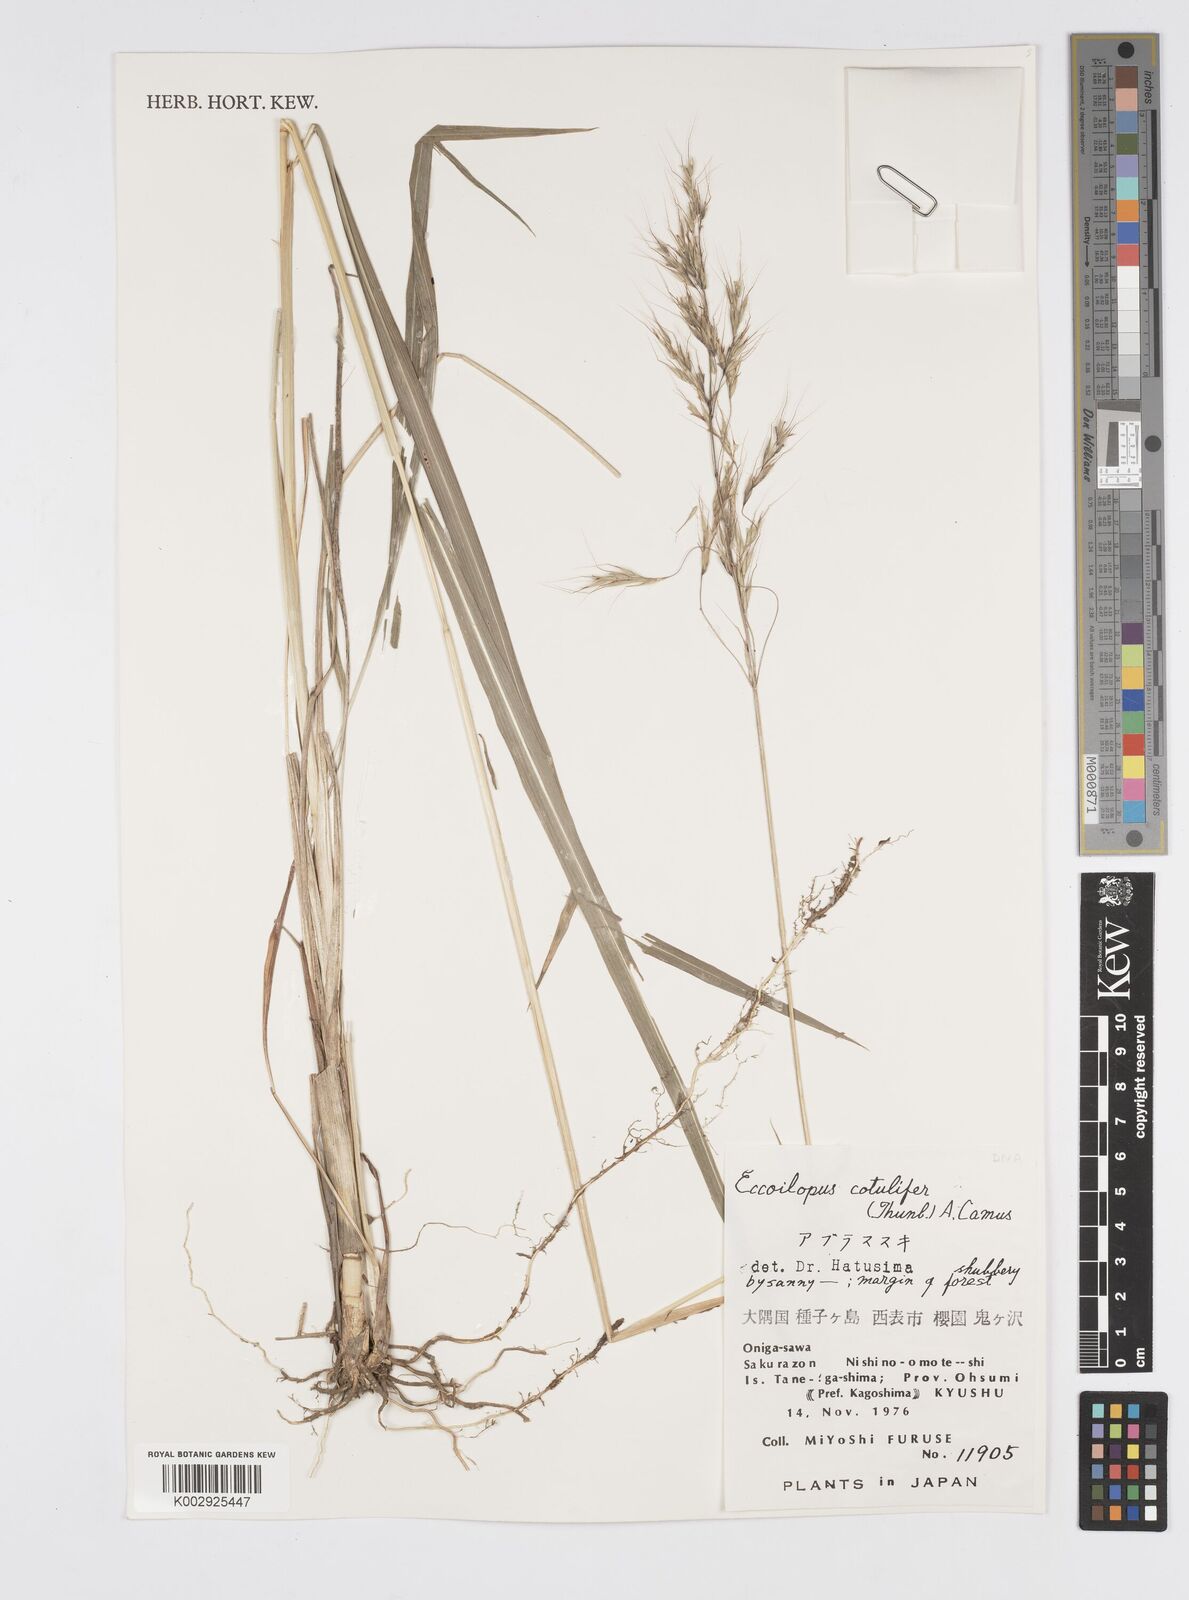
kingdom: Plantae
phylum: Tracheophyta
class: Liliopsida
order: Poales
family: Poaceae
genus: Spodiopogon
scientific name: Spodiopogon cotulifer
